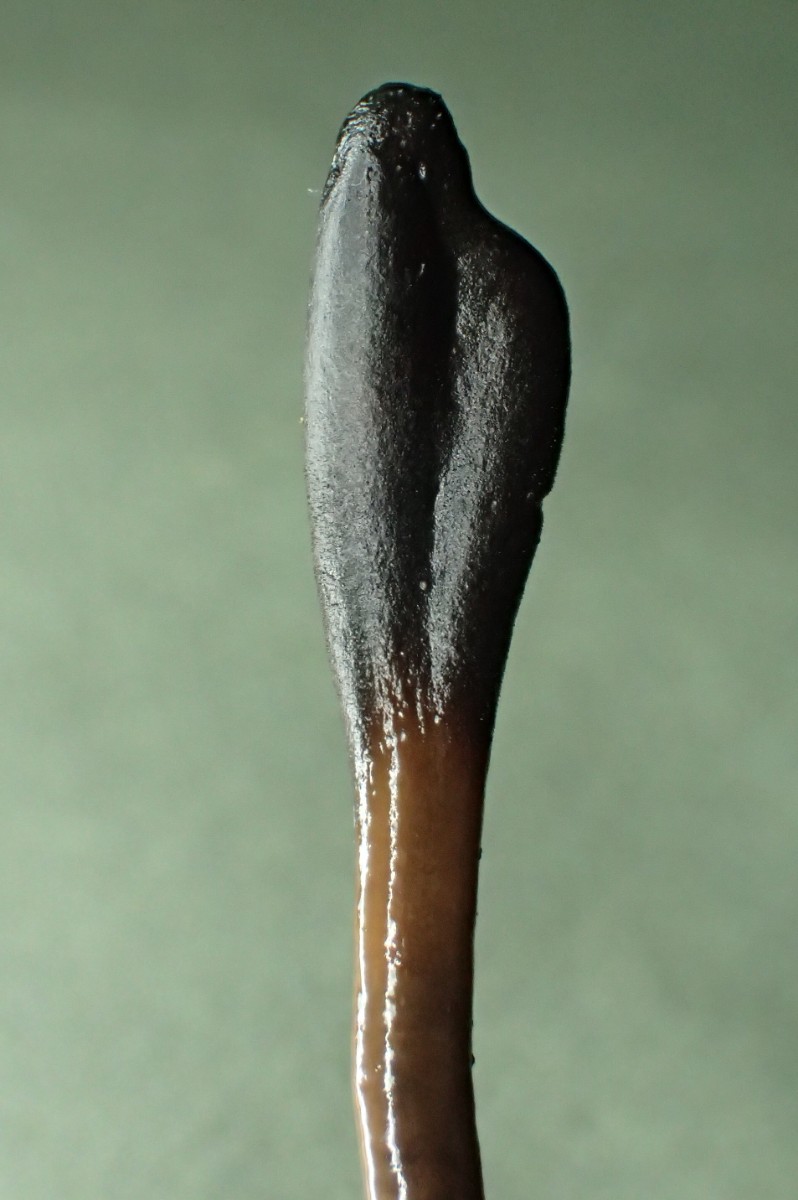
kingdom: Fungi
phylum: Ascomycota
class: Geoglossomycetes
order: Geoglossales
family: Geoglossaceae
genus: Glutinoglossum
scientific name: Glutinoglossum glutinosum
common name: slimet jordtunge
